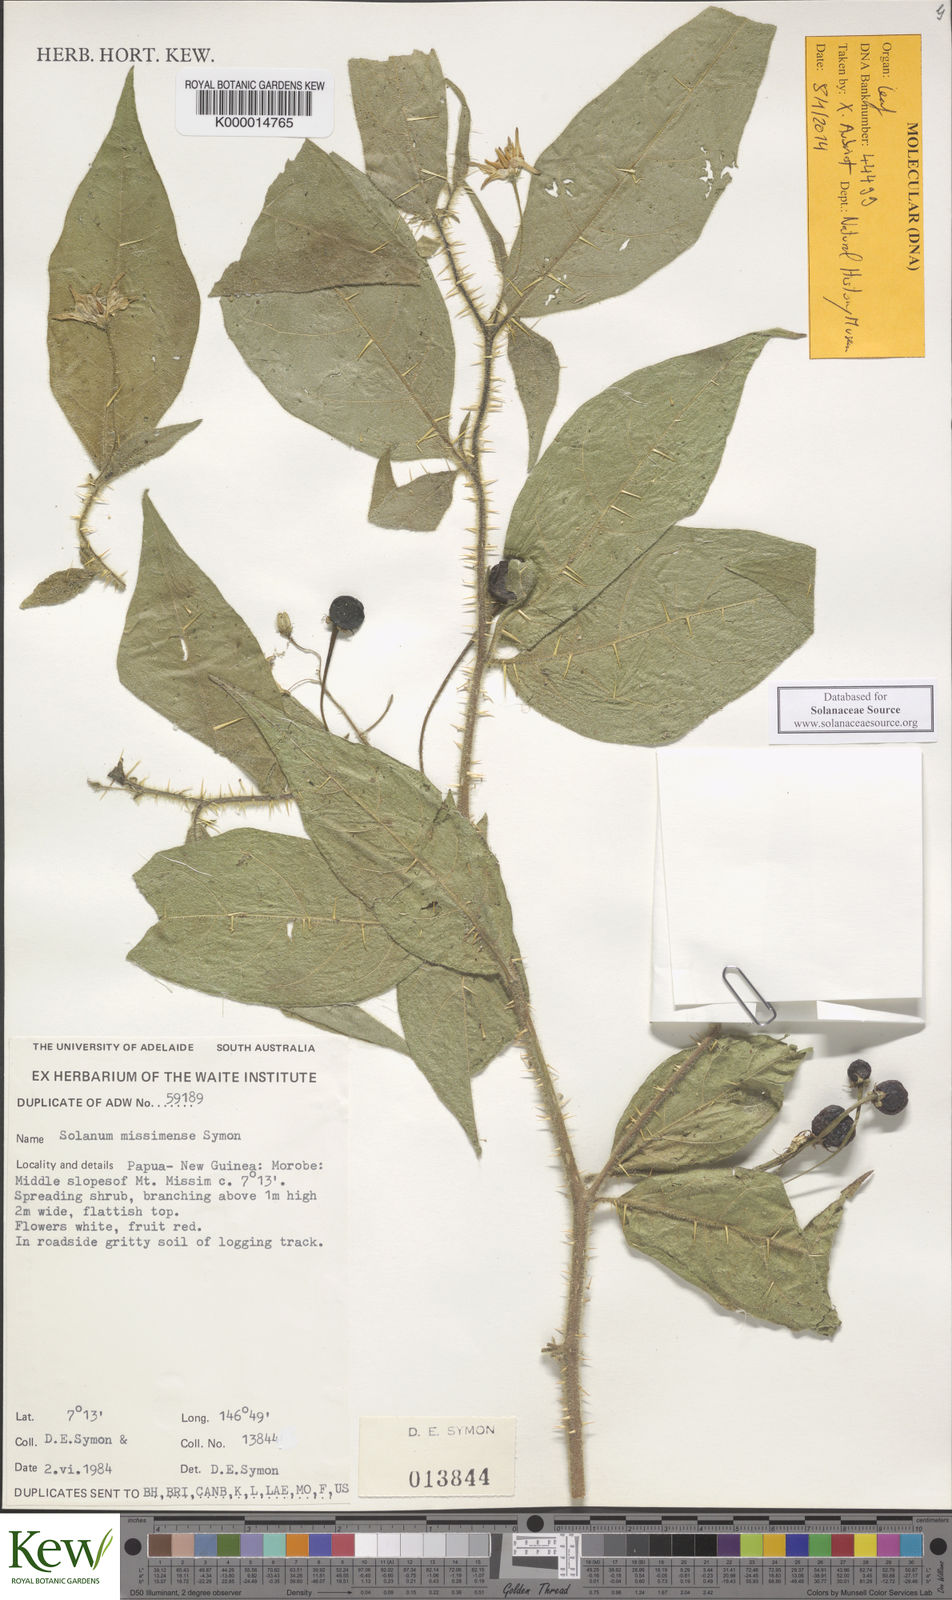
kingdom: Plantae
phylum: Tracheophyta
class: Magnoliopsida
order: Solanales
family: Solanaceae
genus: Solanum
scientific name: Solanum missimense
